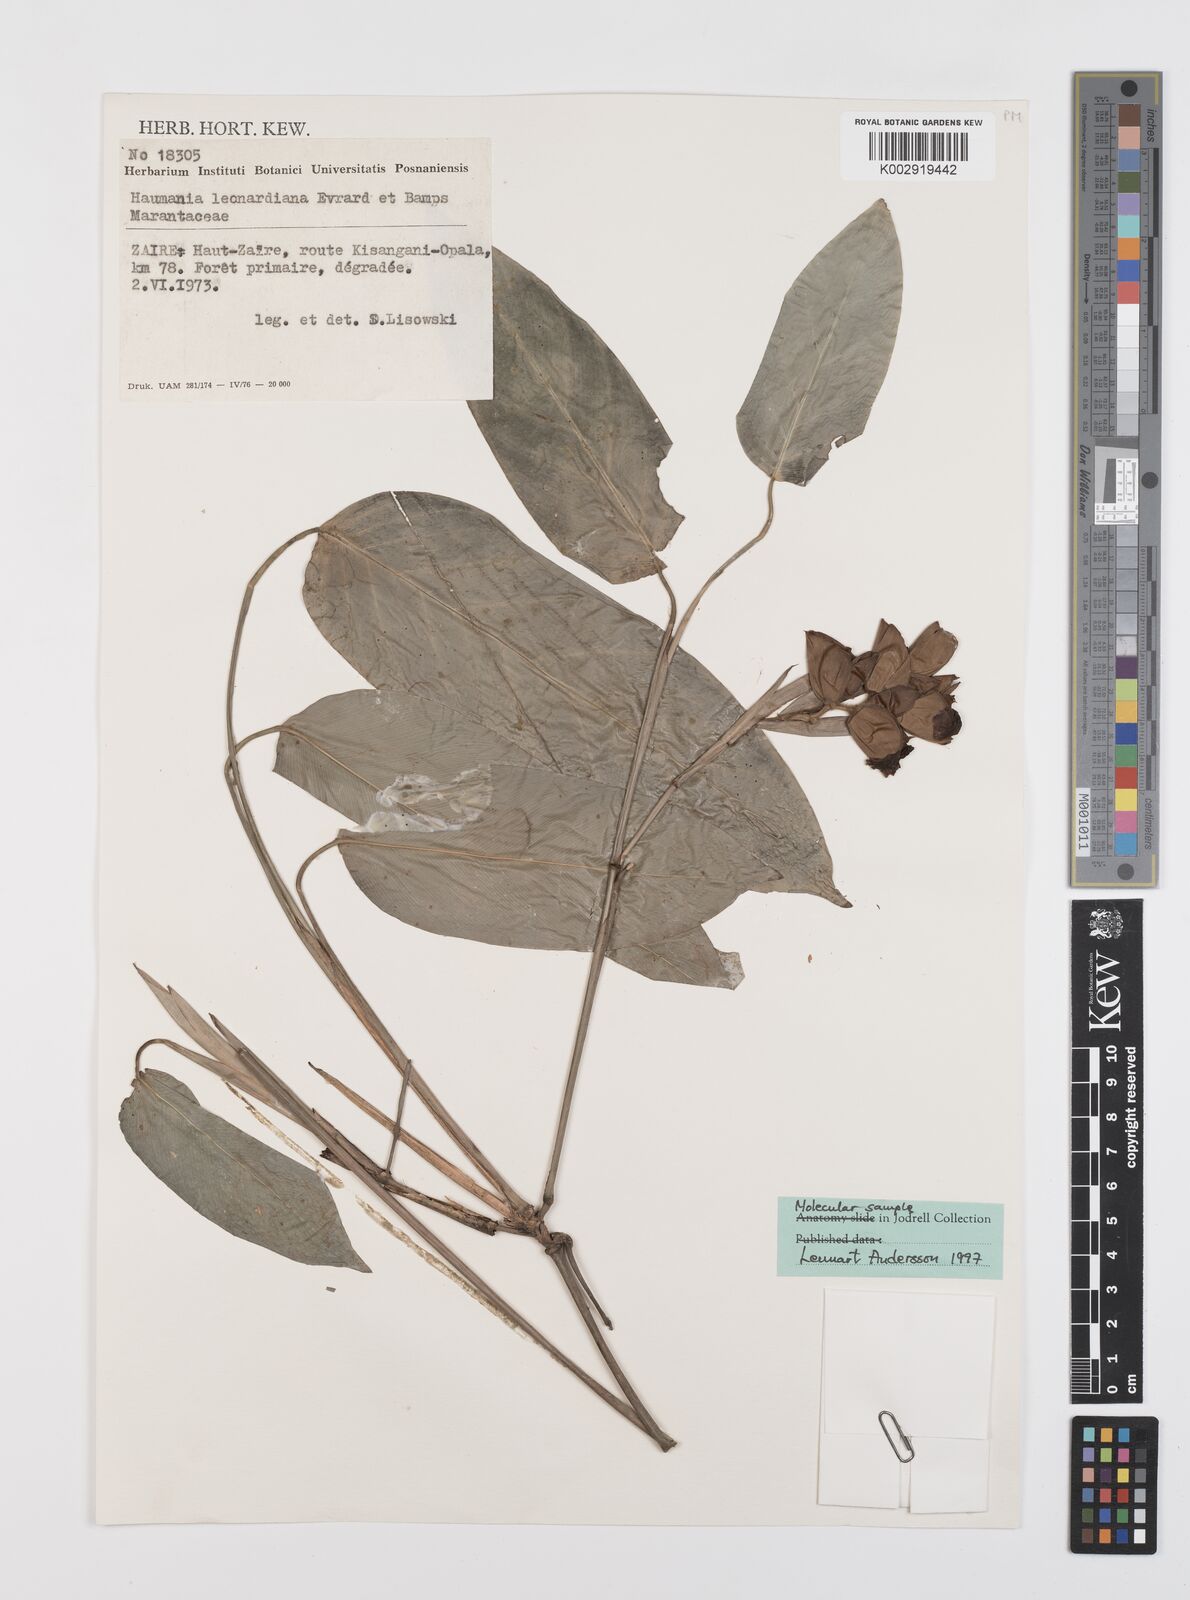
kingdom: Plantae
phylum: Tracheophyta
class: Liliopsida
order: Zingiberales
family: Marantaceae
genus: Haumania
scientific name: Haumania leonardiana
